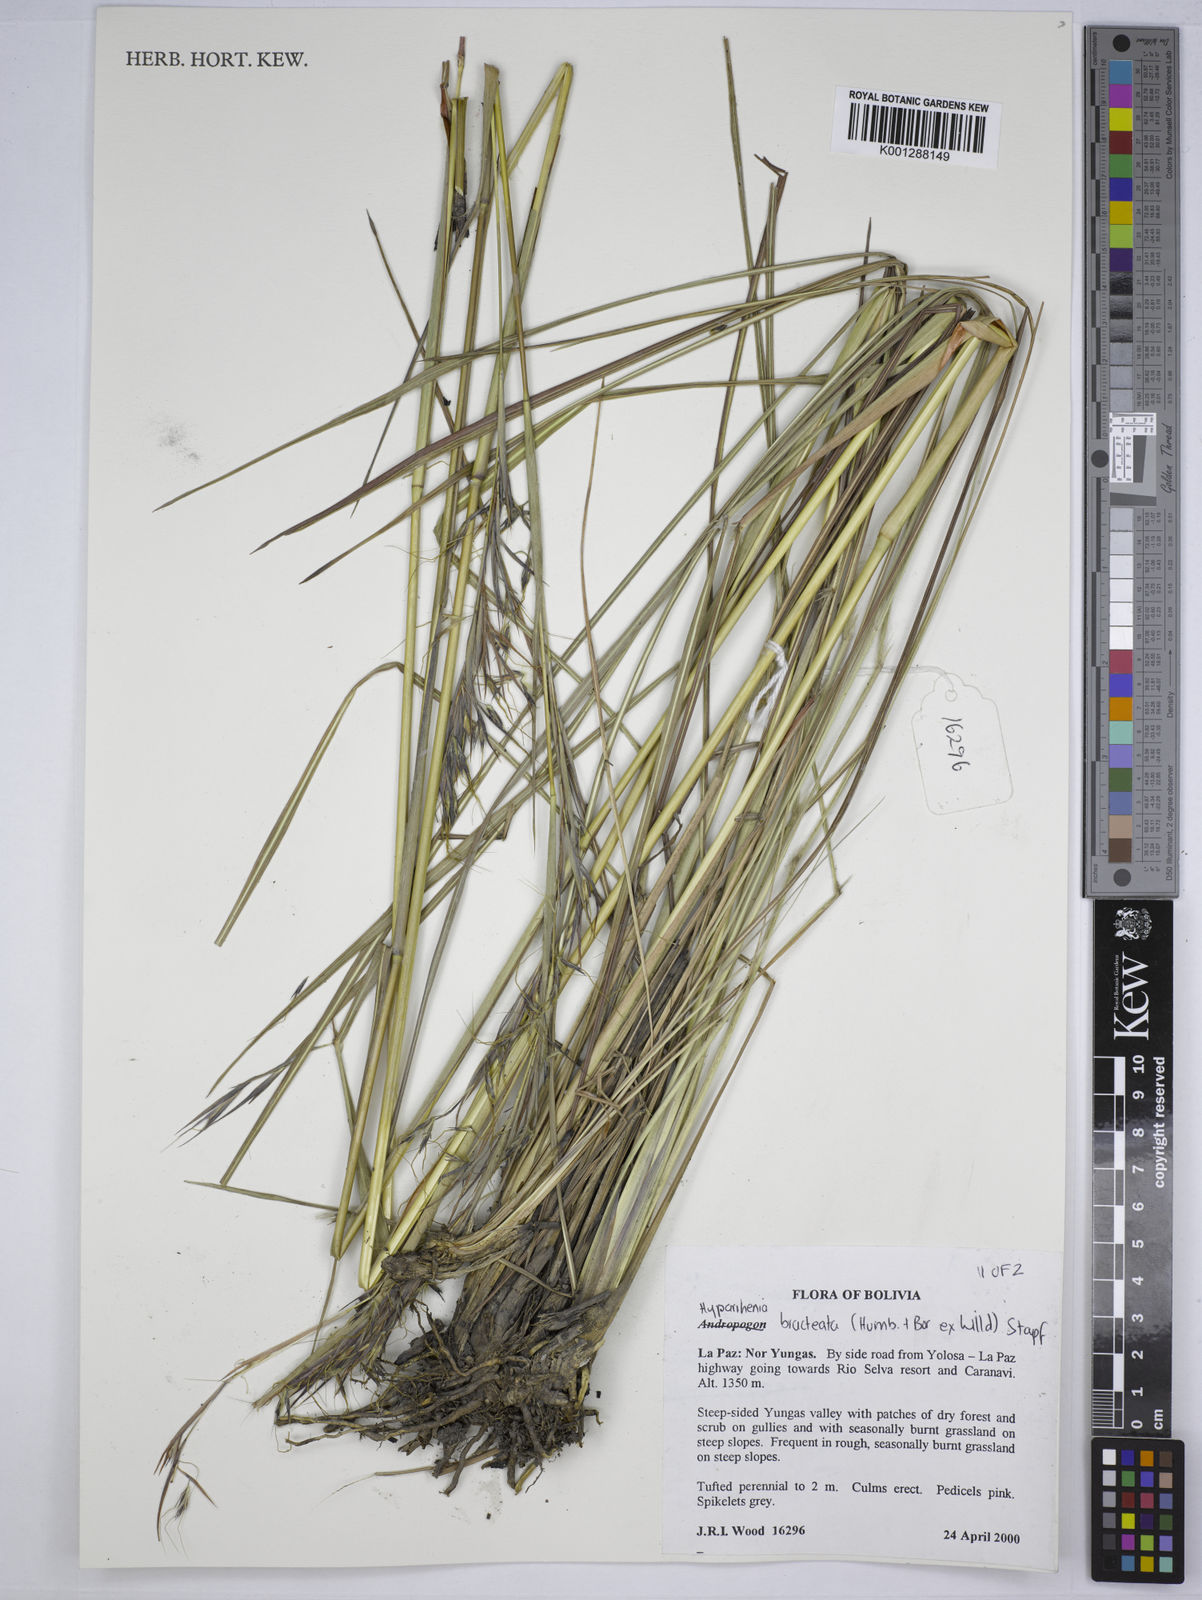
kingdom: Plantae
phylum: Tracheophyta
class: Liliopsida
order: Poales
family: Poaceae
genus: Hyparrhenia
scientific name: Hyparrhenia bracteata
